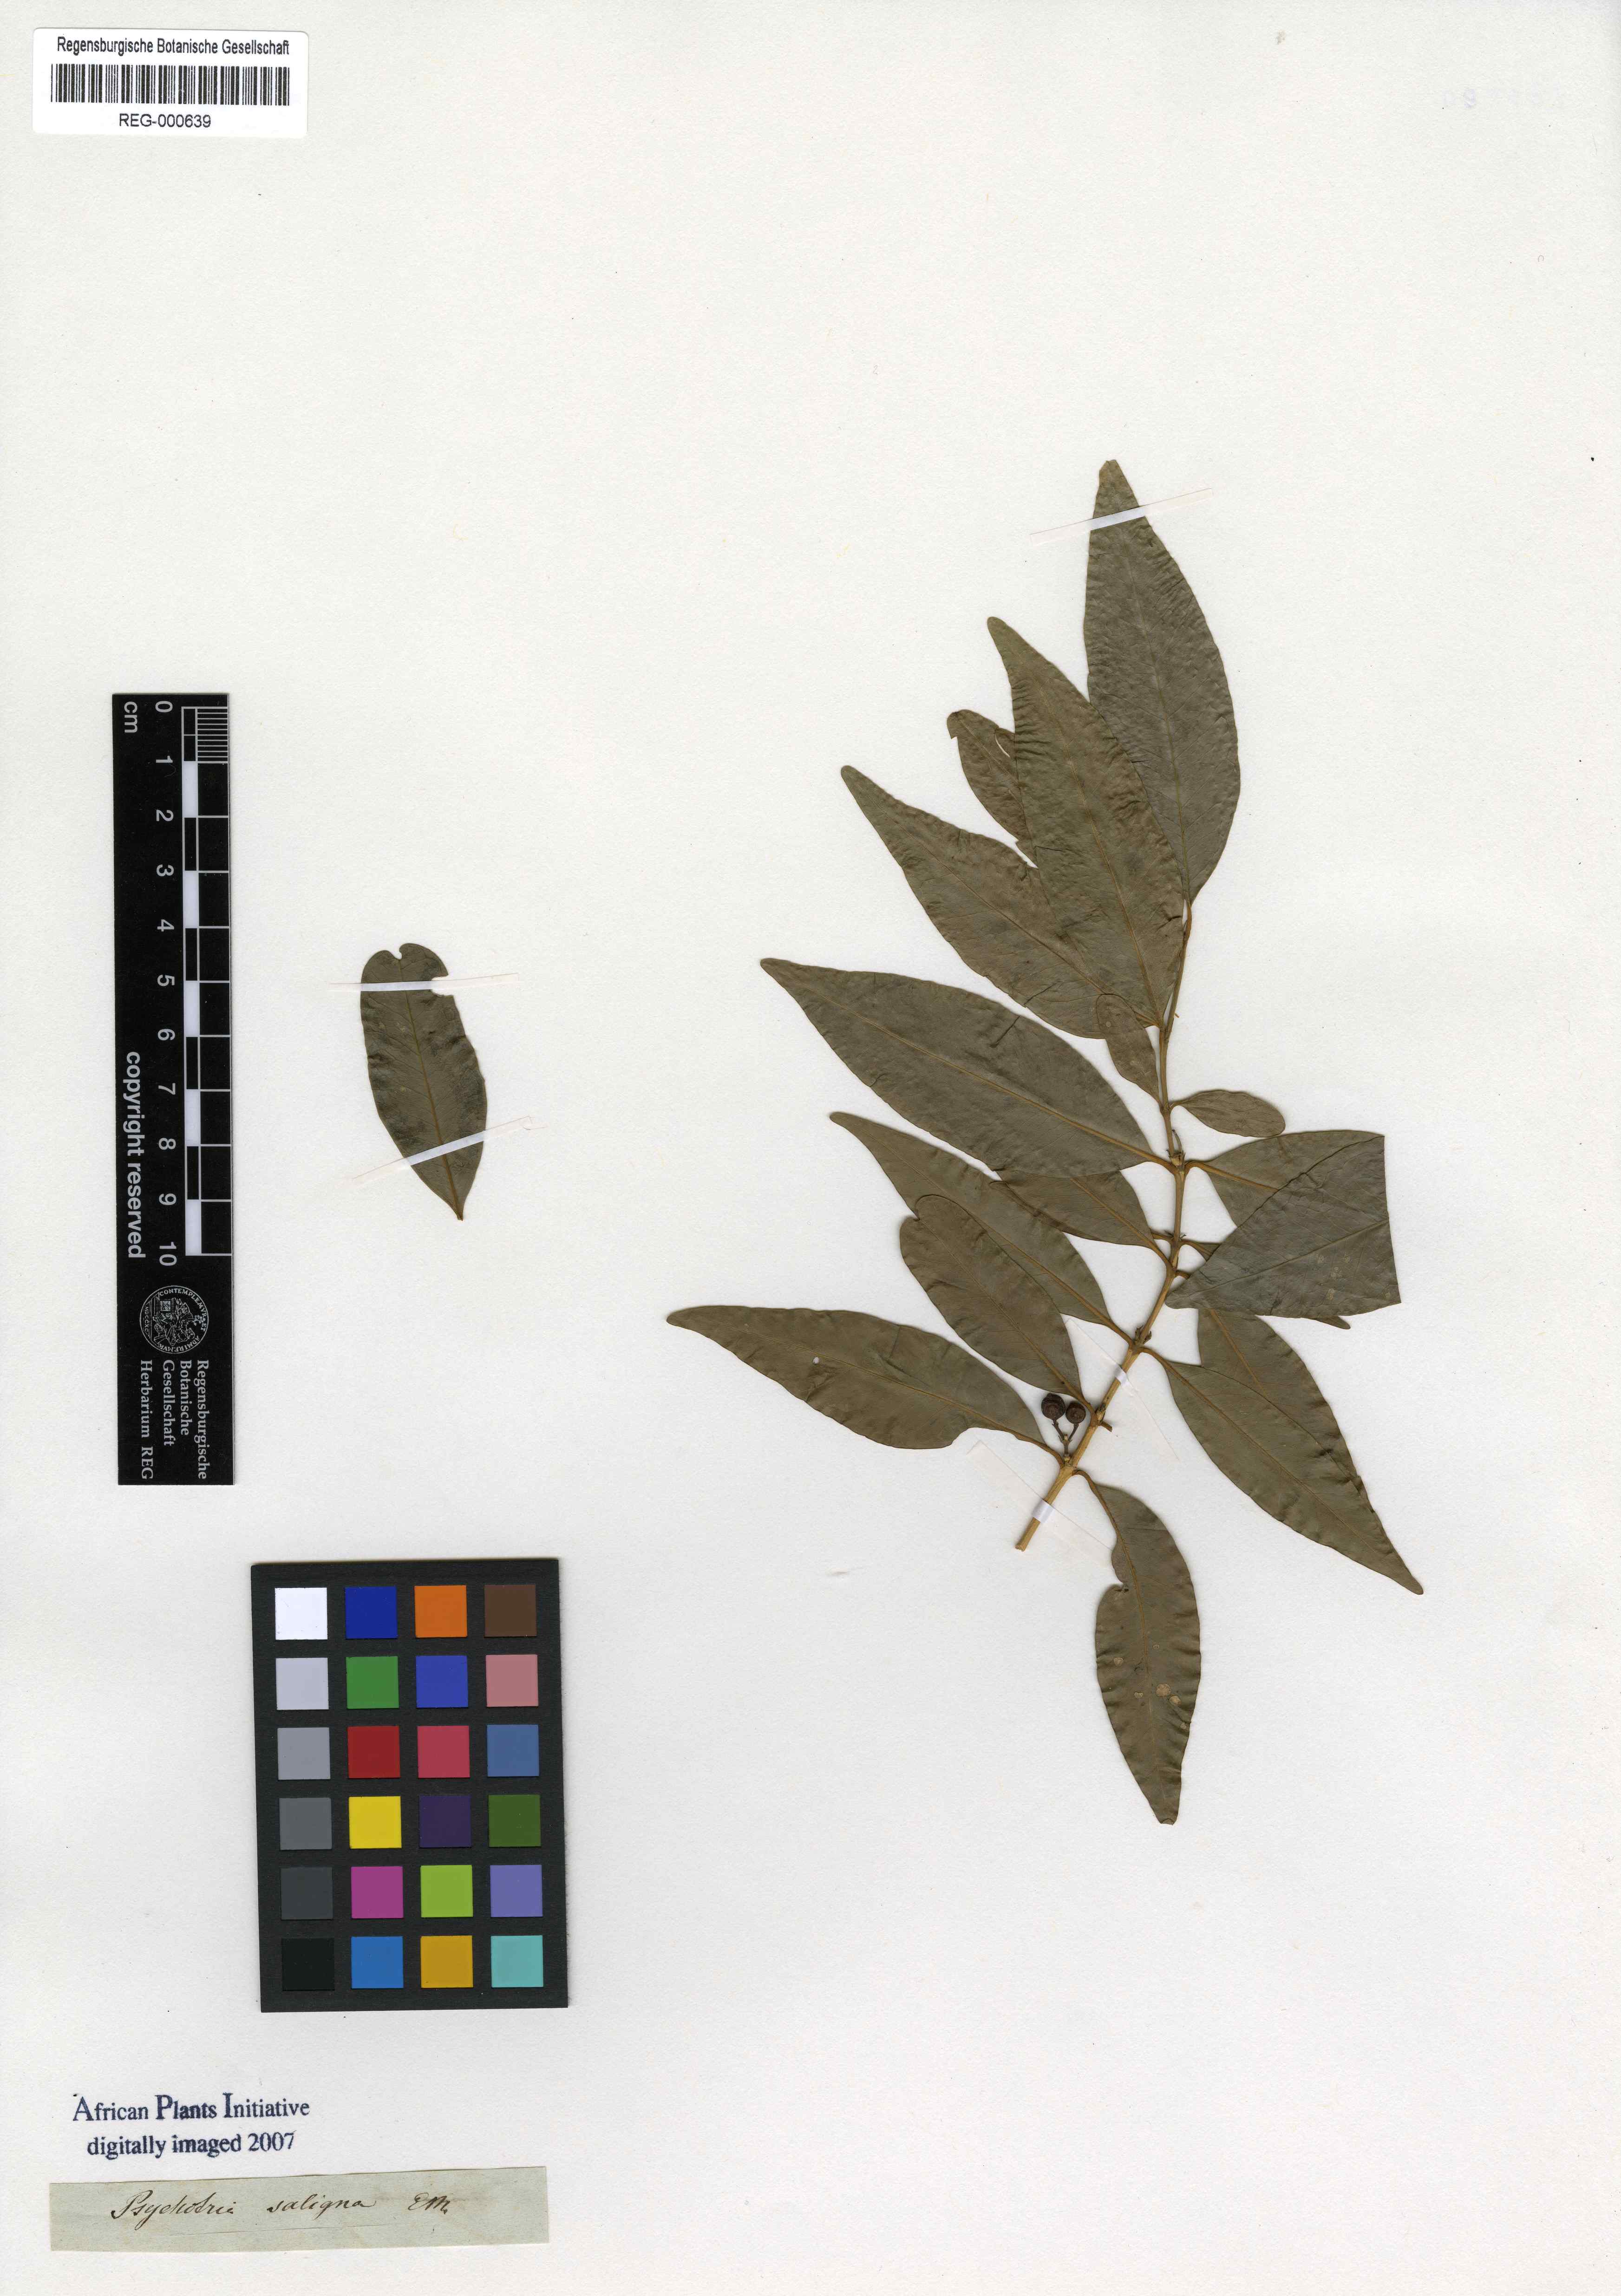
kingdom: Plantae
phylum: Tracheophyta
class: Magnoliopsida
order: Gentianales
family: Rubiaceae
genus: Empogona
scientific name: Empogona lanceolata
